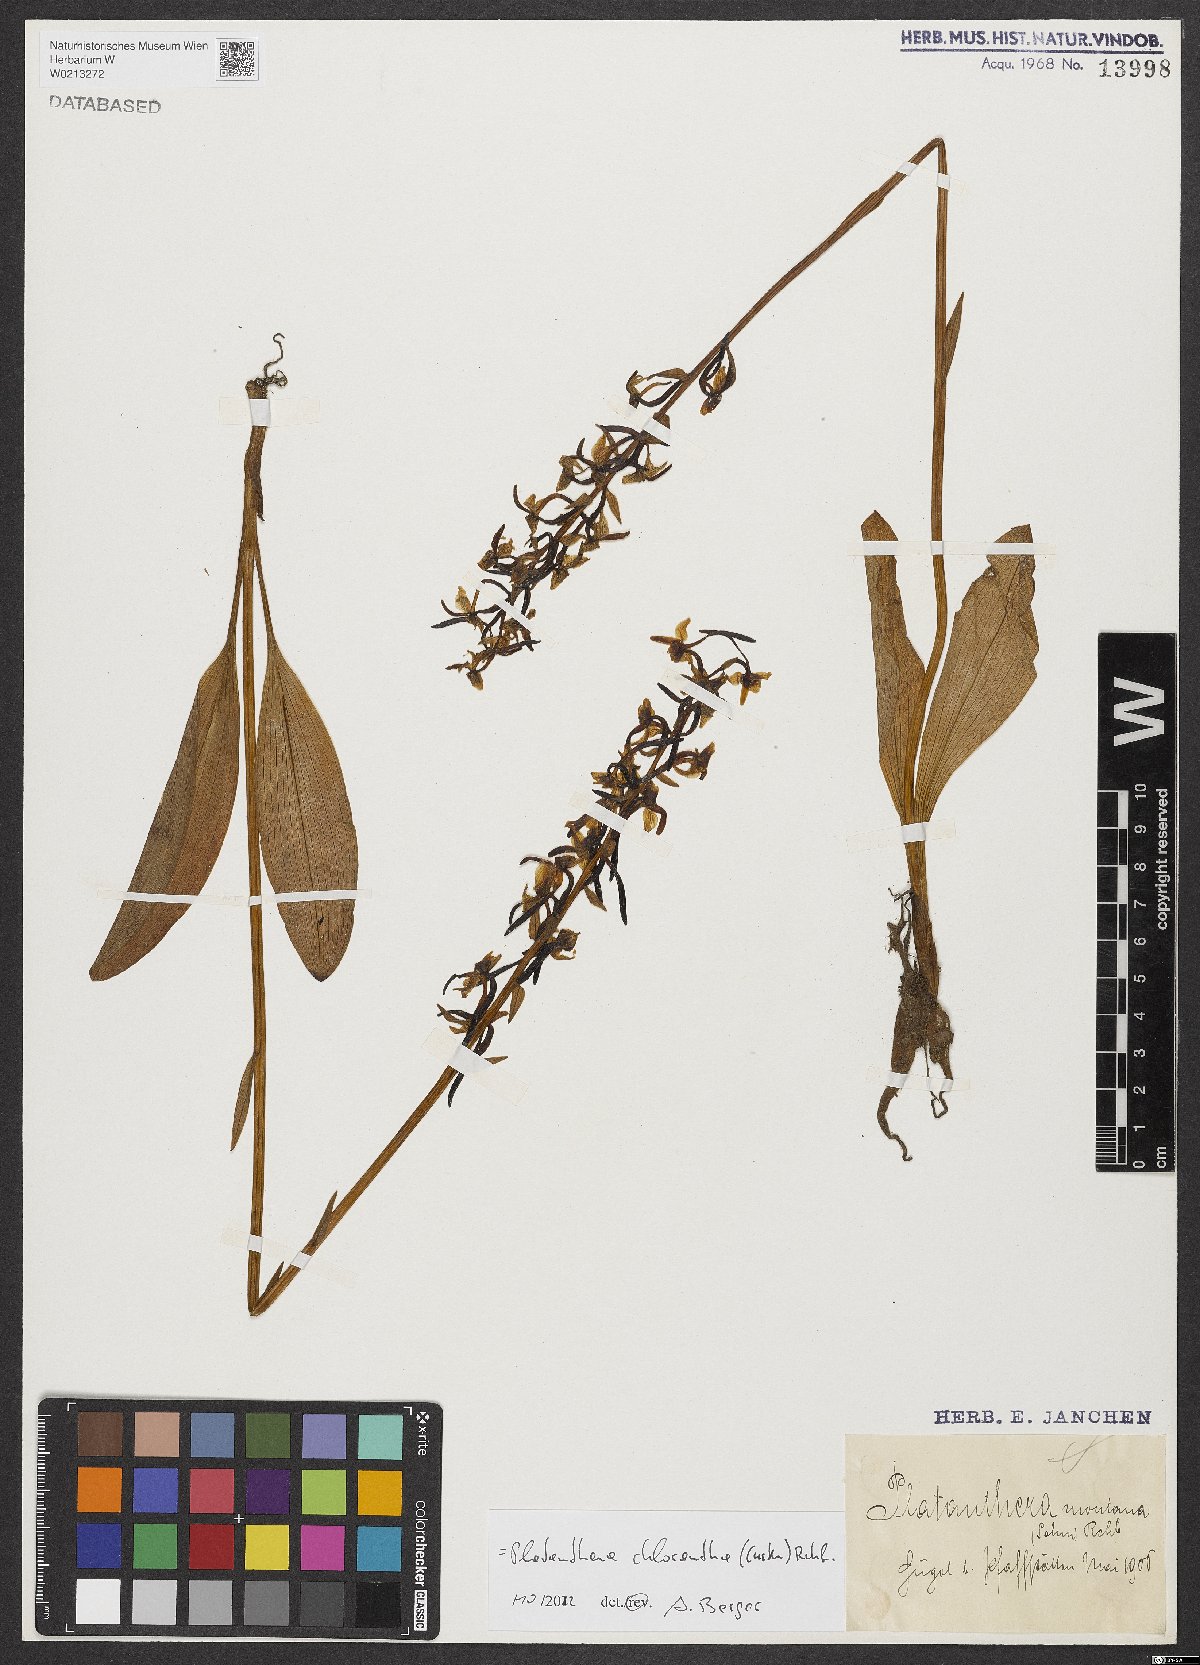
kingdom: Plantae
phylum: Tracheophyta
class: Liliopsida
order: Asparagales
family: Orchidaceae
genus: Platanthera
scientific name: Platanthera chlorantha
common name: Greater butterfly-orchid
